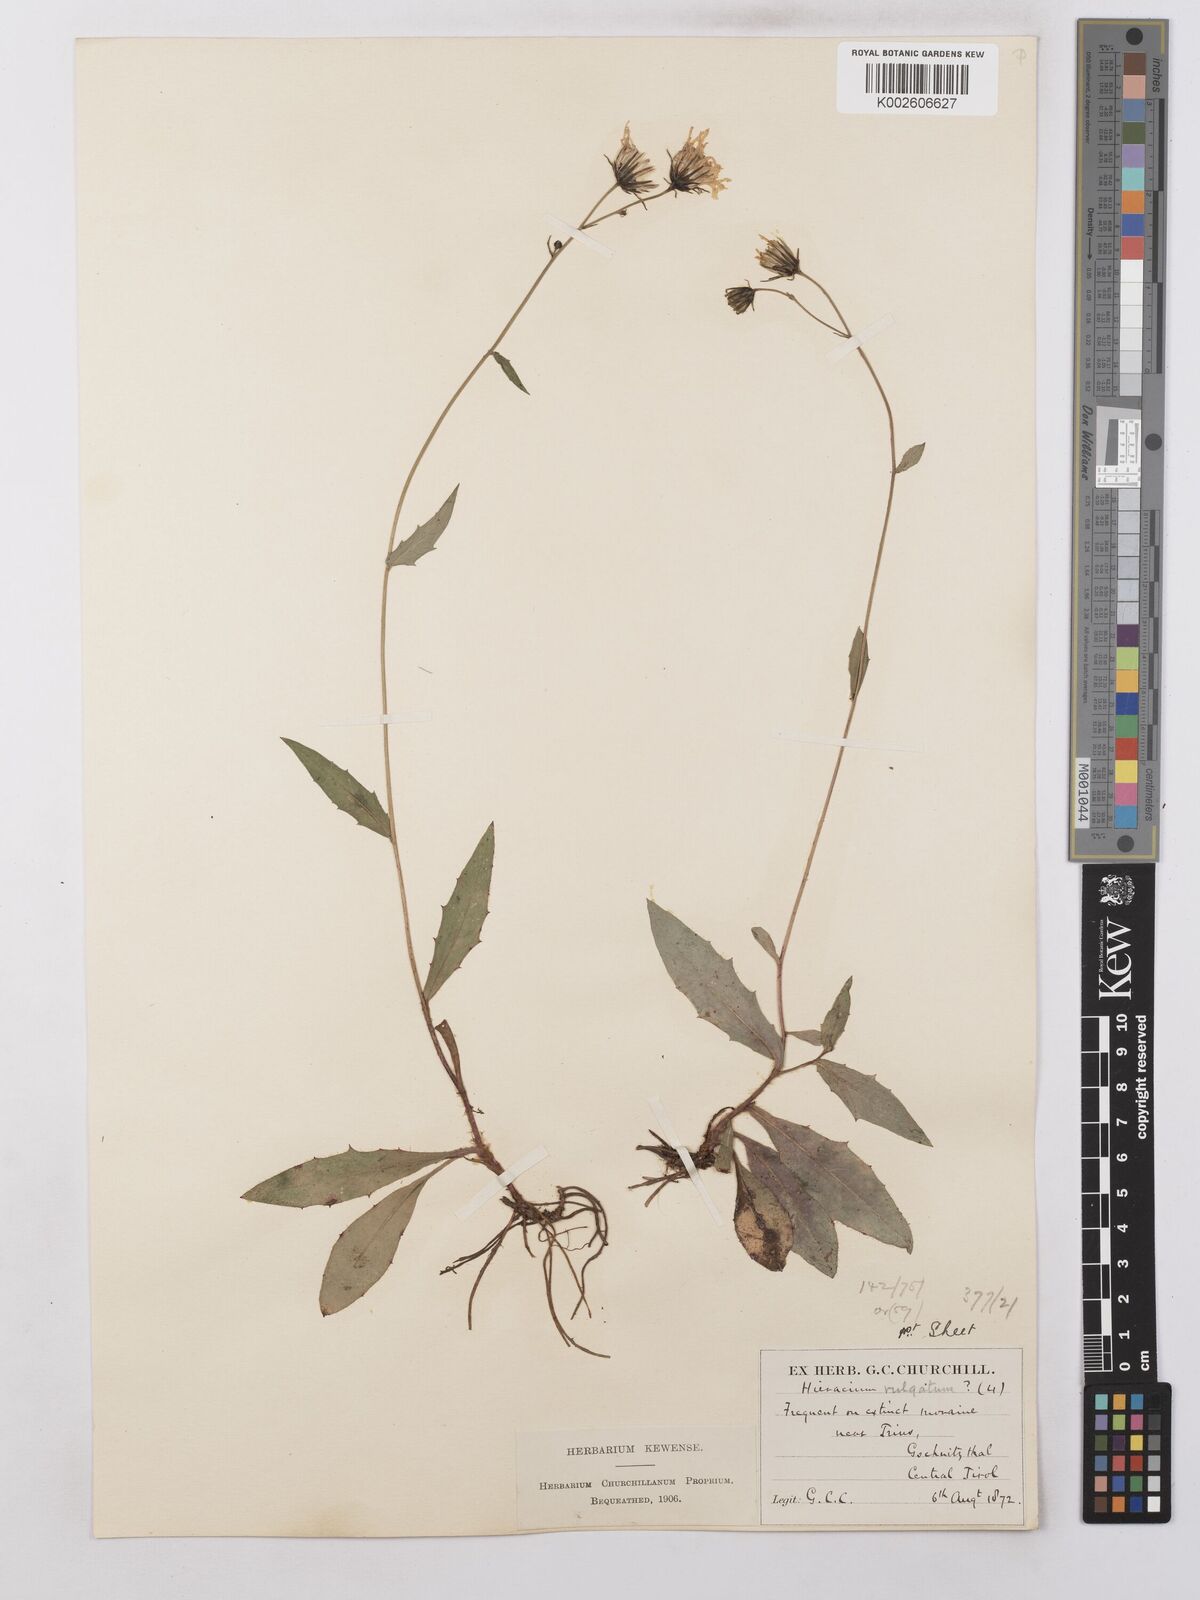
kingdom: Plantae
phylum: Tracheophyta
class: Magnoliopsida
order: Asterales
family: Asteraceae
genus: Hieracium
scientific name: Hieracium lachenalii
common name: Common hawkweed
